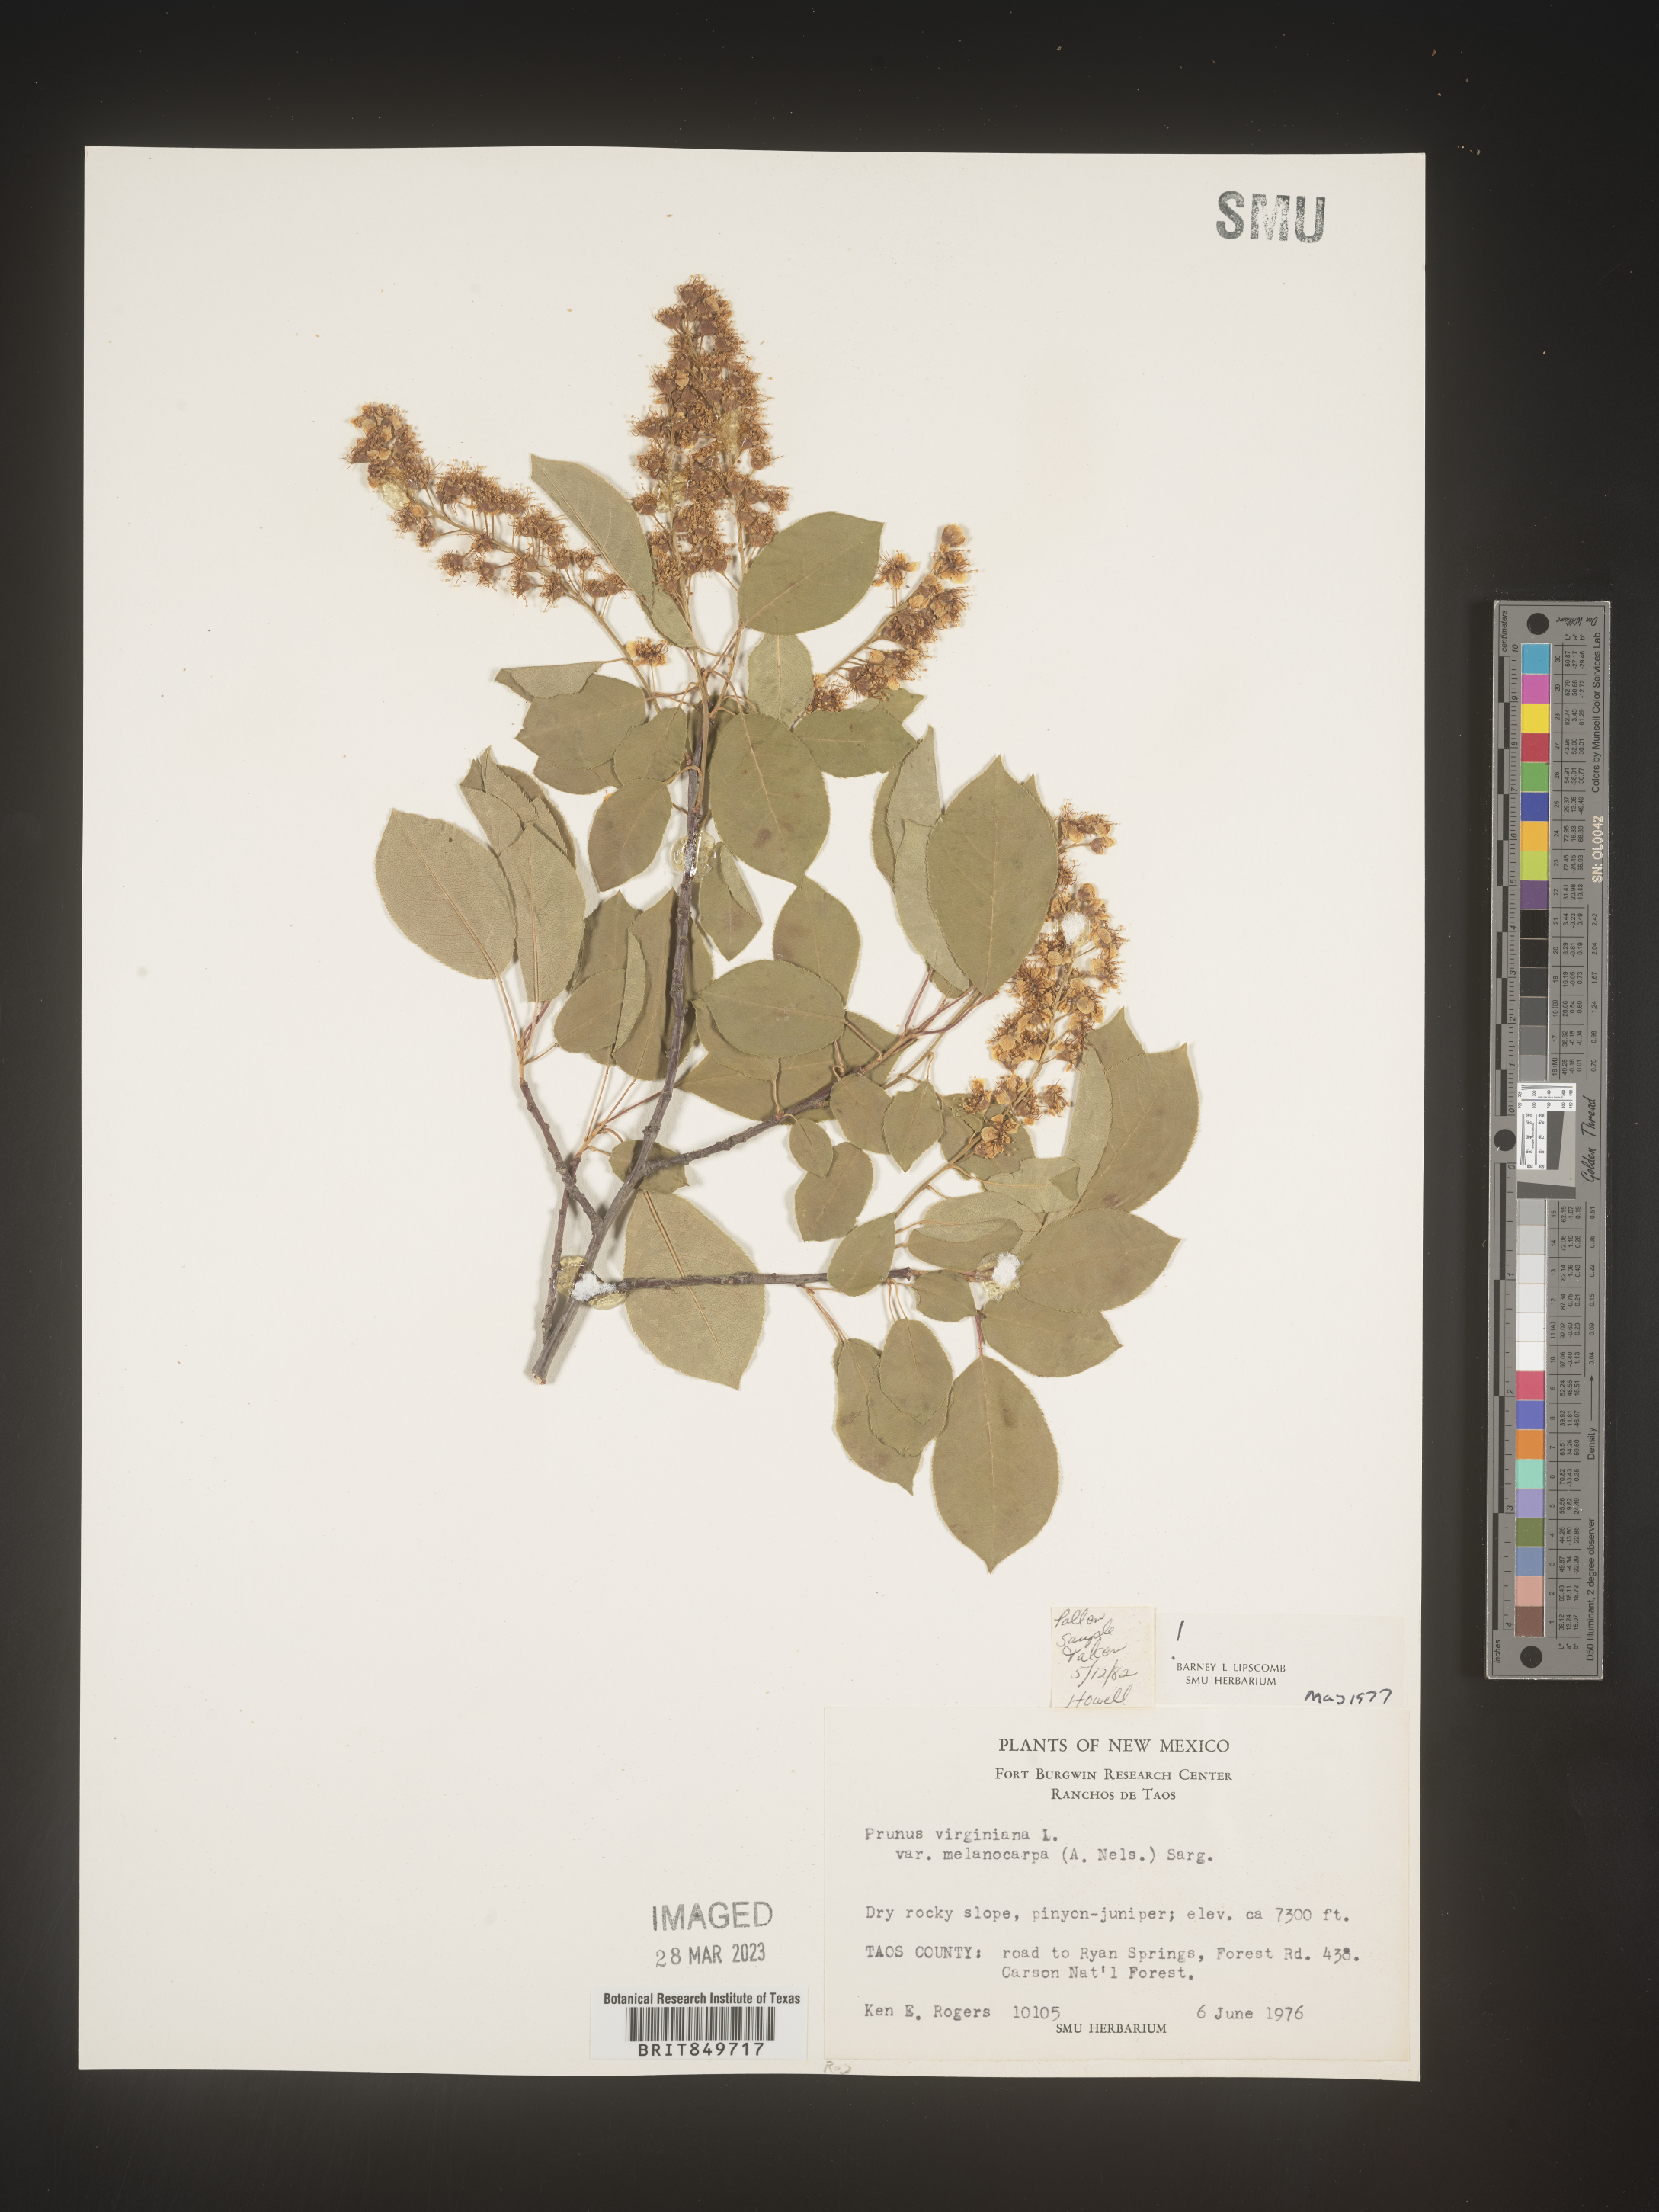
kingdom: Plantae
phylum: Tracheophyta
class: Magnoliopsida
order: Rosales
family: Rosaceae
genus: Prunus
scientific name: Prunus virginiana
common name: Chokecherry
